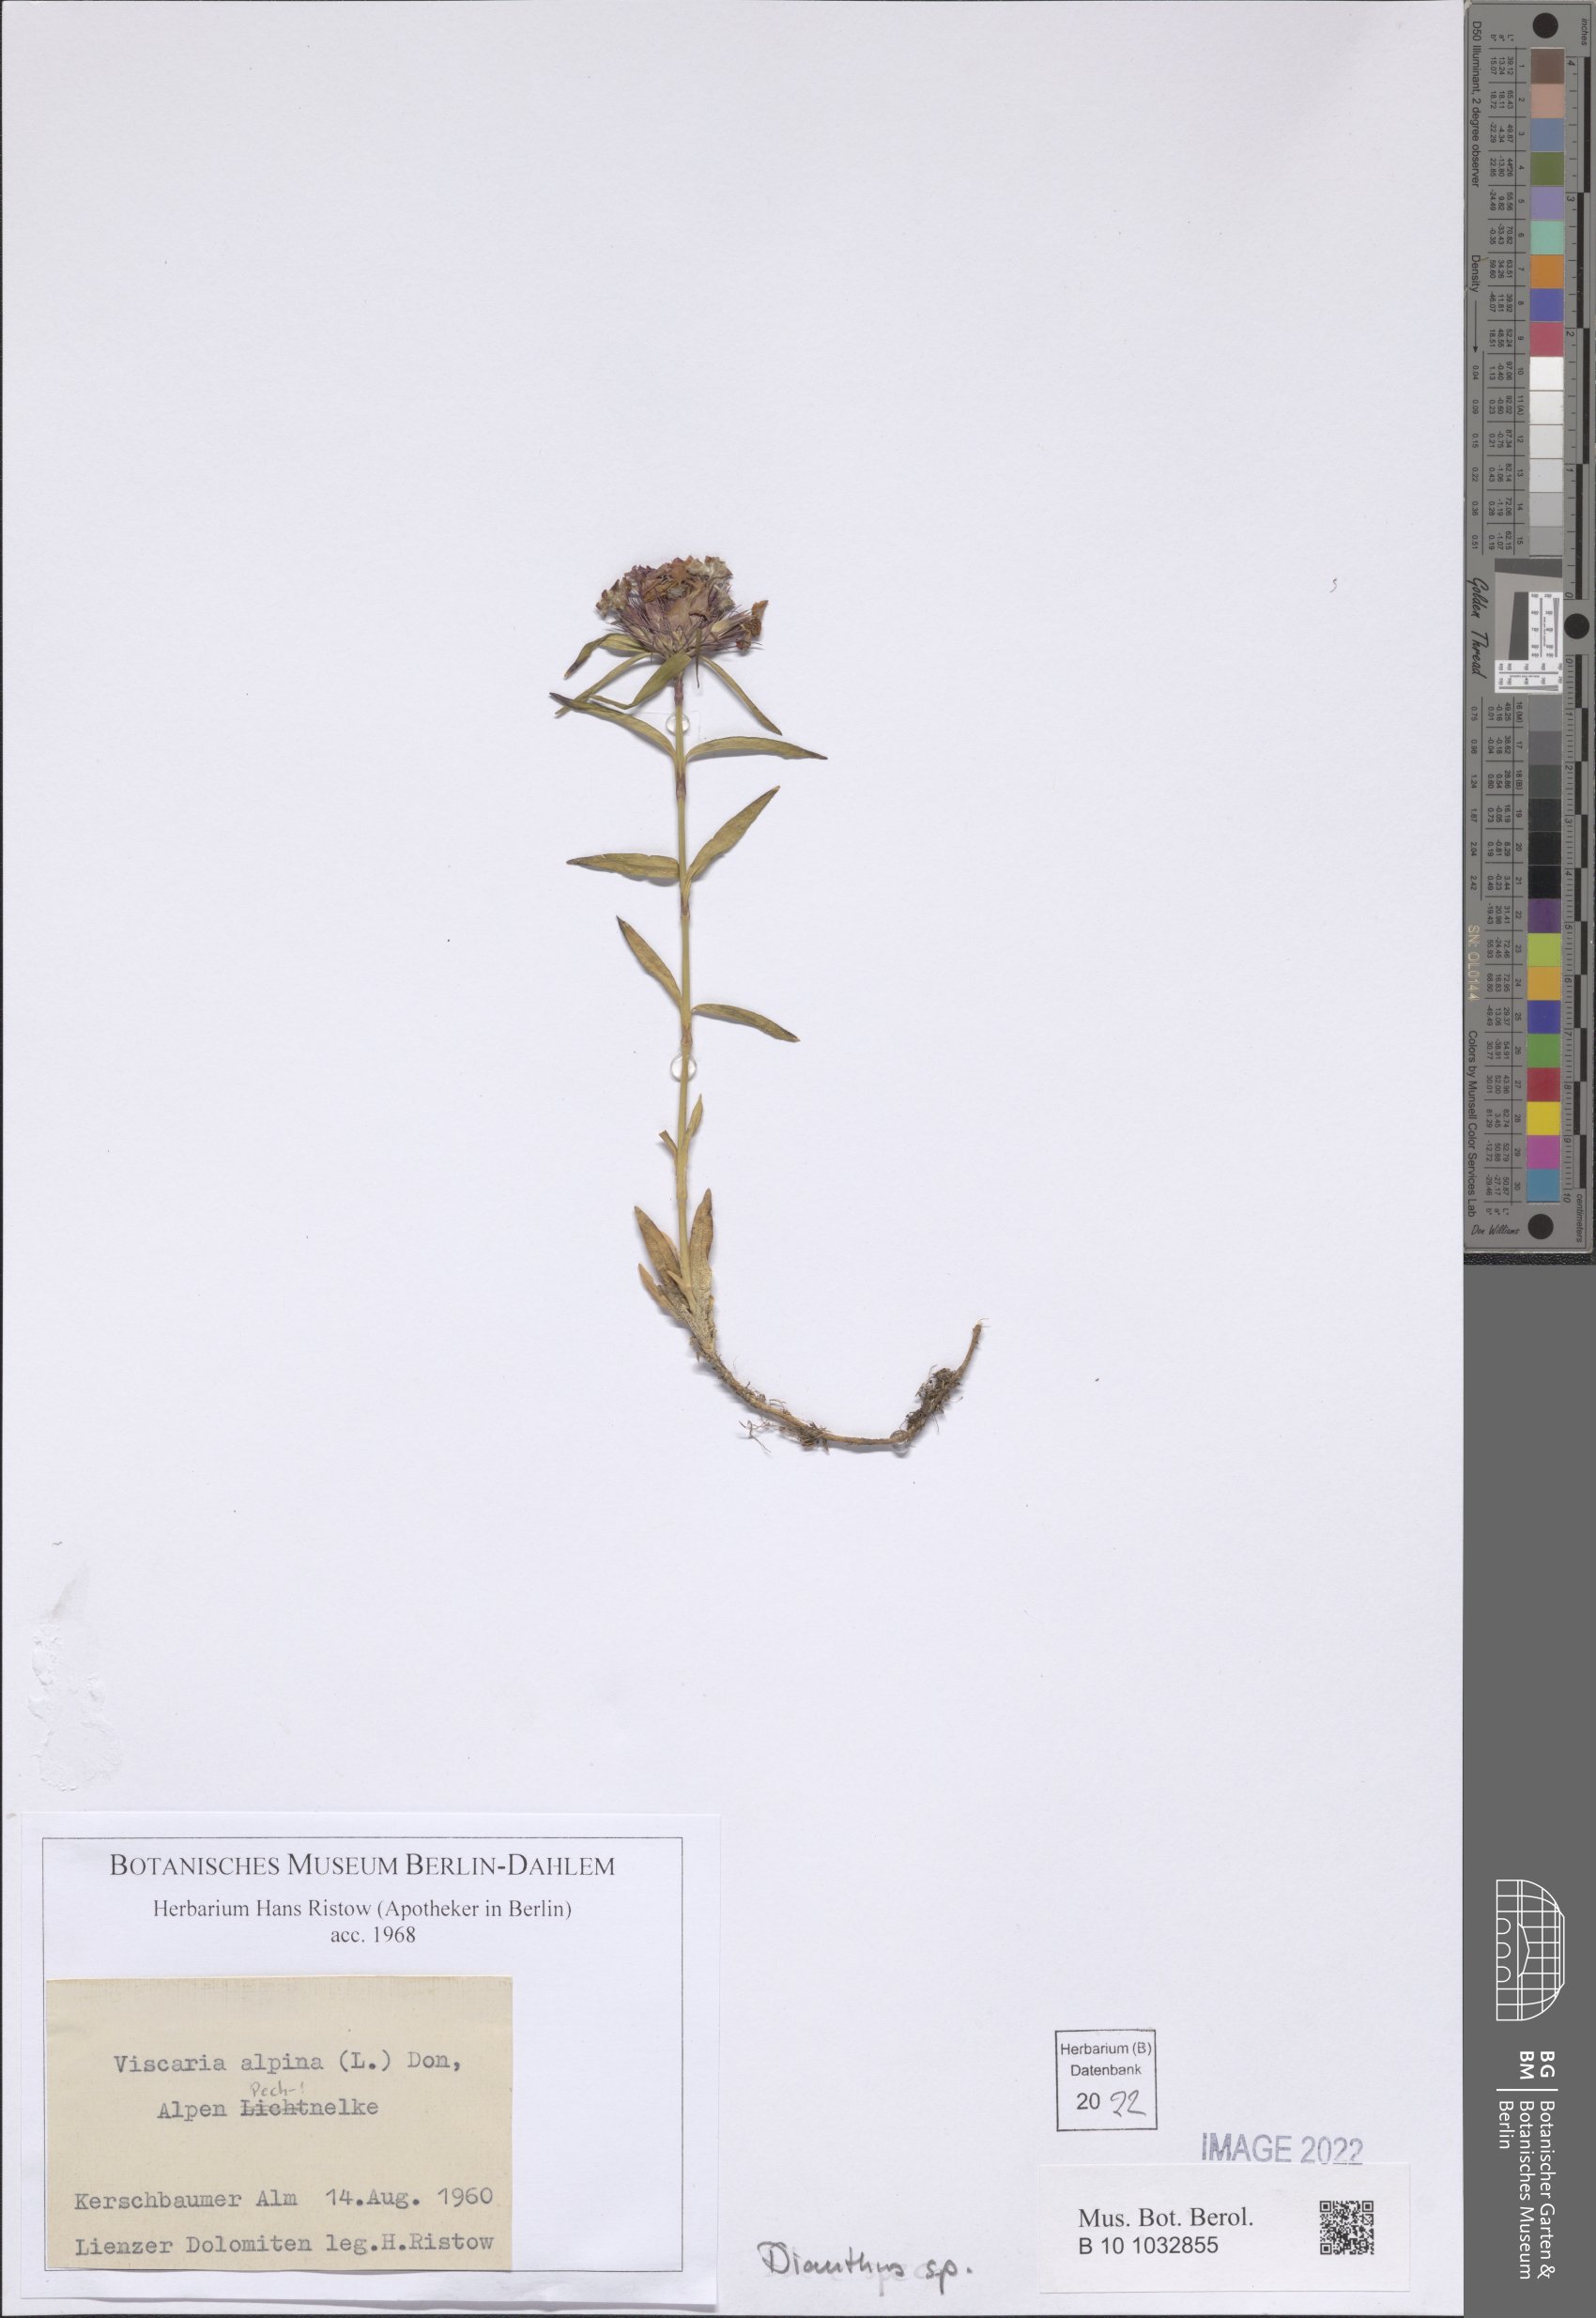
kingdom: Plantae
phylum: Tracheophyta
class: Magnoliopsida
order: Caryophyllales
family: Caryophyllaceae
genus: Dianthus
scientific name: Dianthus
